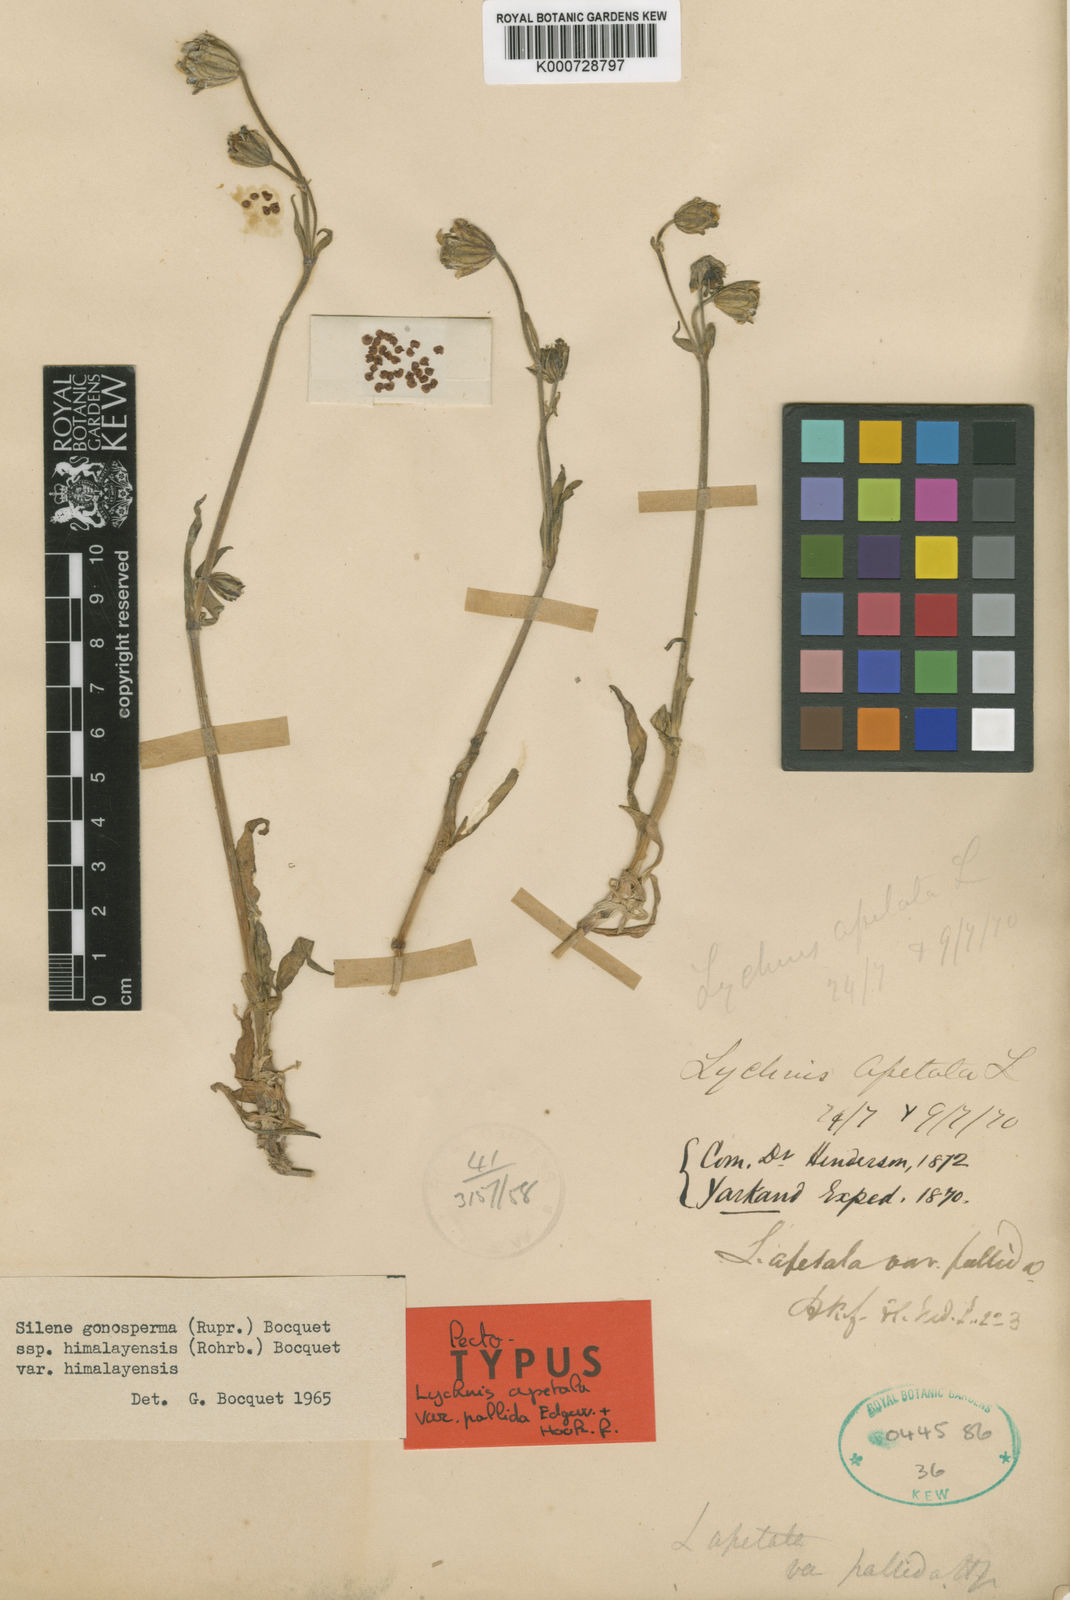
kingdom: Plantae
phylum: Tracheophyta
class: Magnoliopsida
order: Caryophyllales
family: Caryophyllaceae
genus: Silene
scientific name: Silene gonosperma
